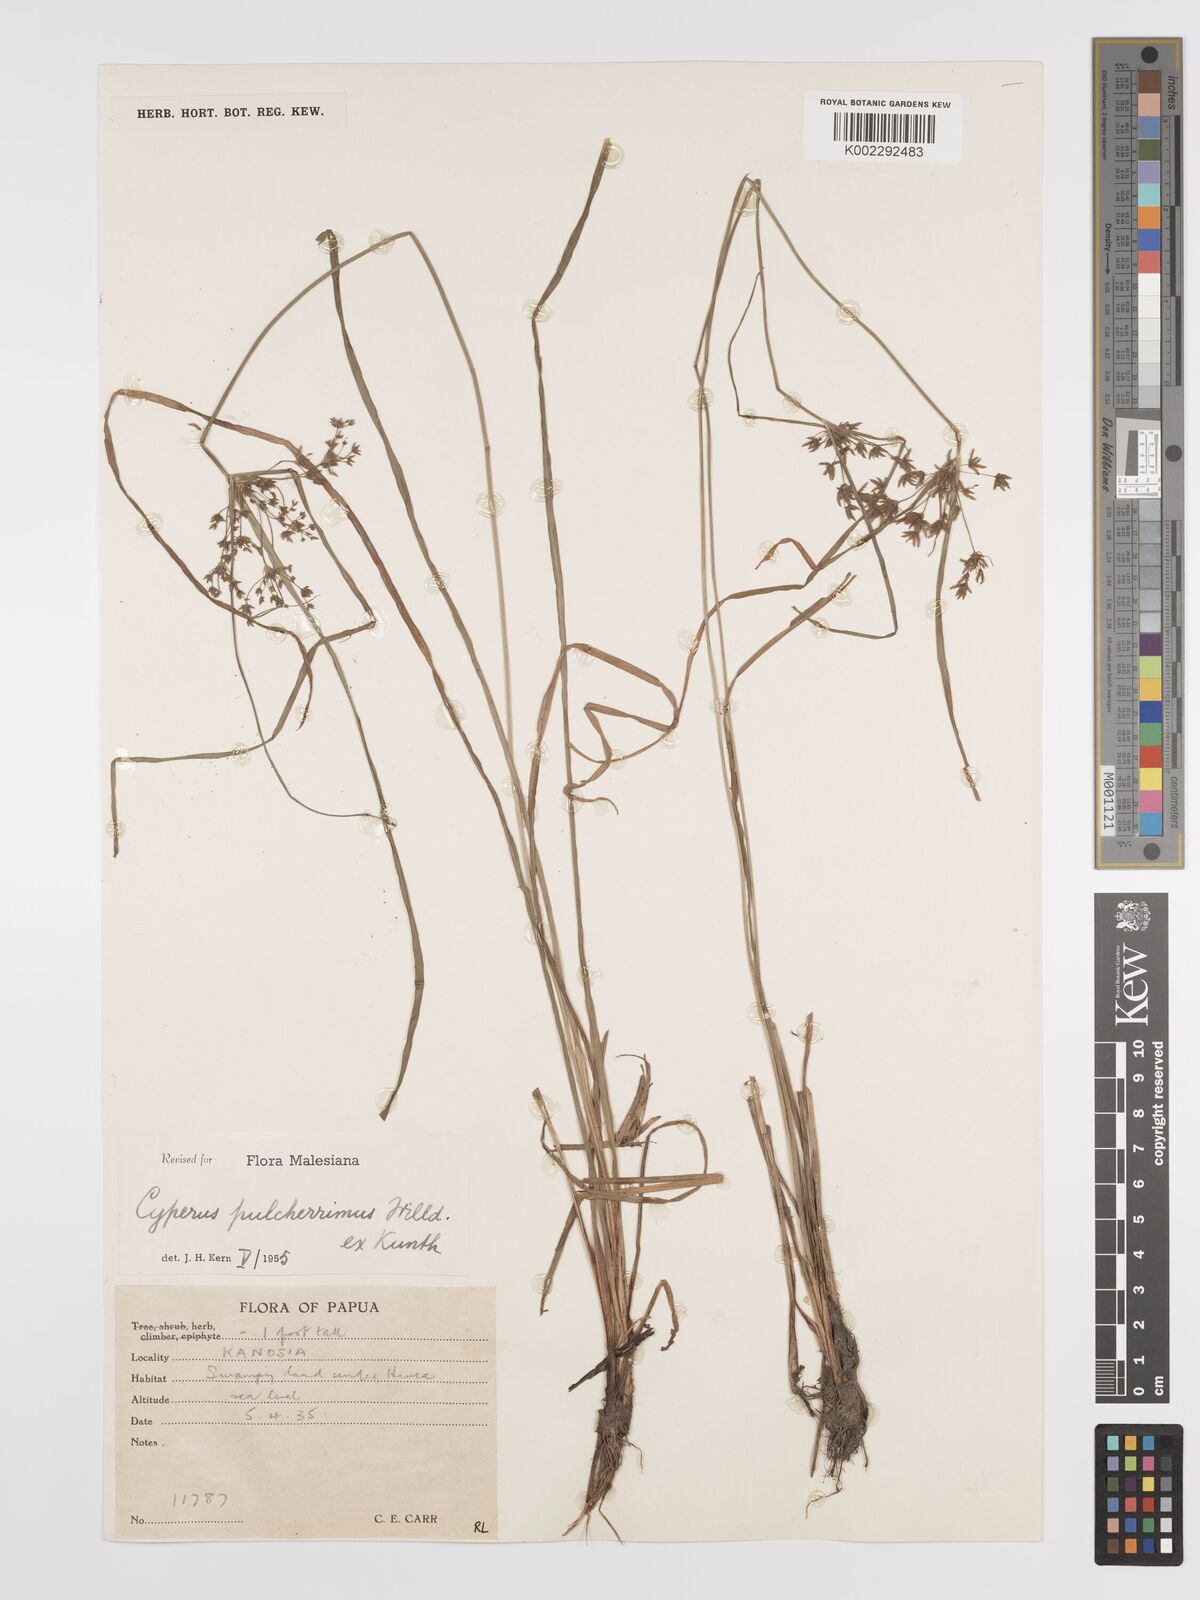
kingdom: Plantae
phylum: Tracheophyta
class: Liliopsida
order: Poales
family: Cyperaceae
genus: Cyperus
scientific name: Cyperus pulcherrimus
